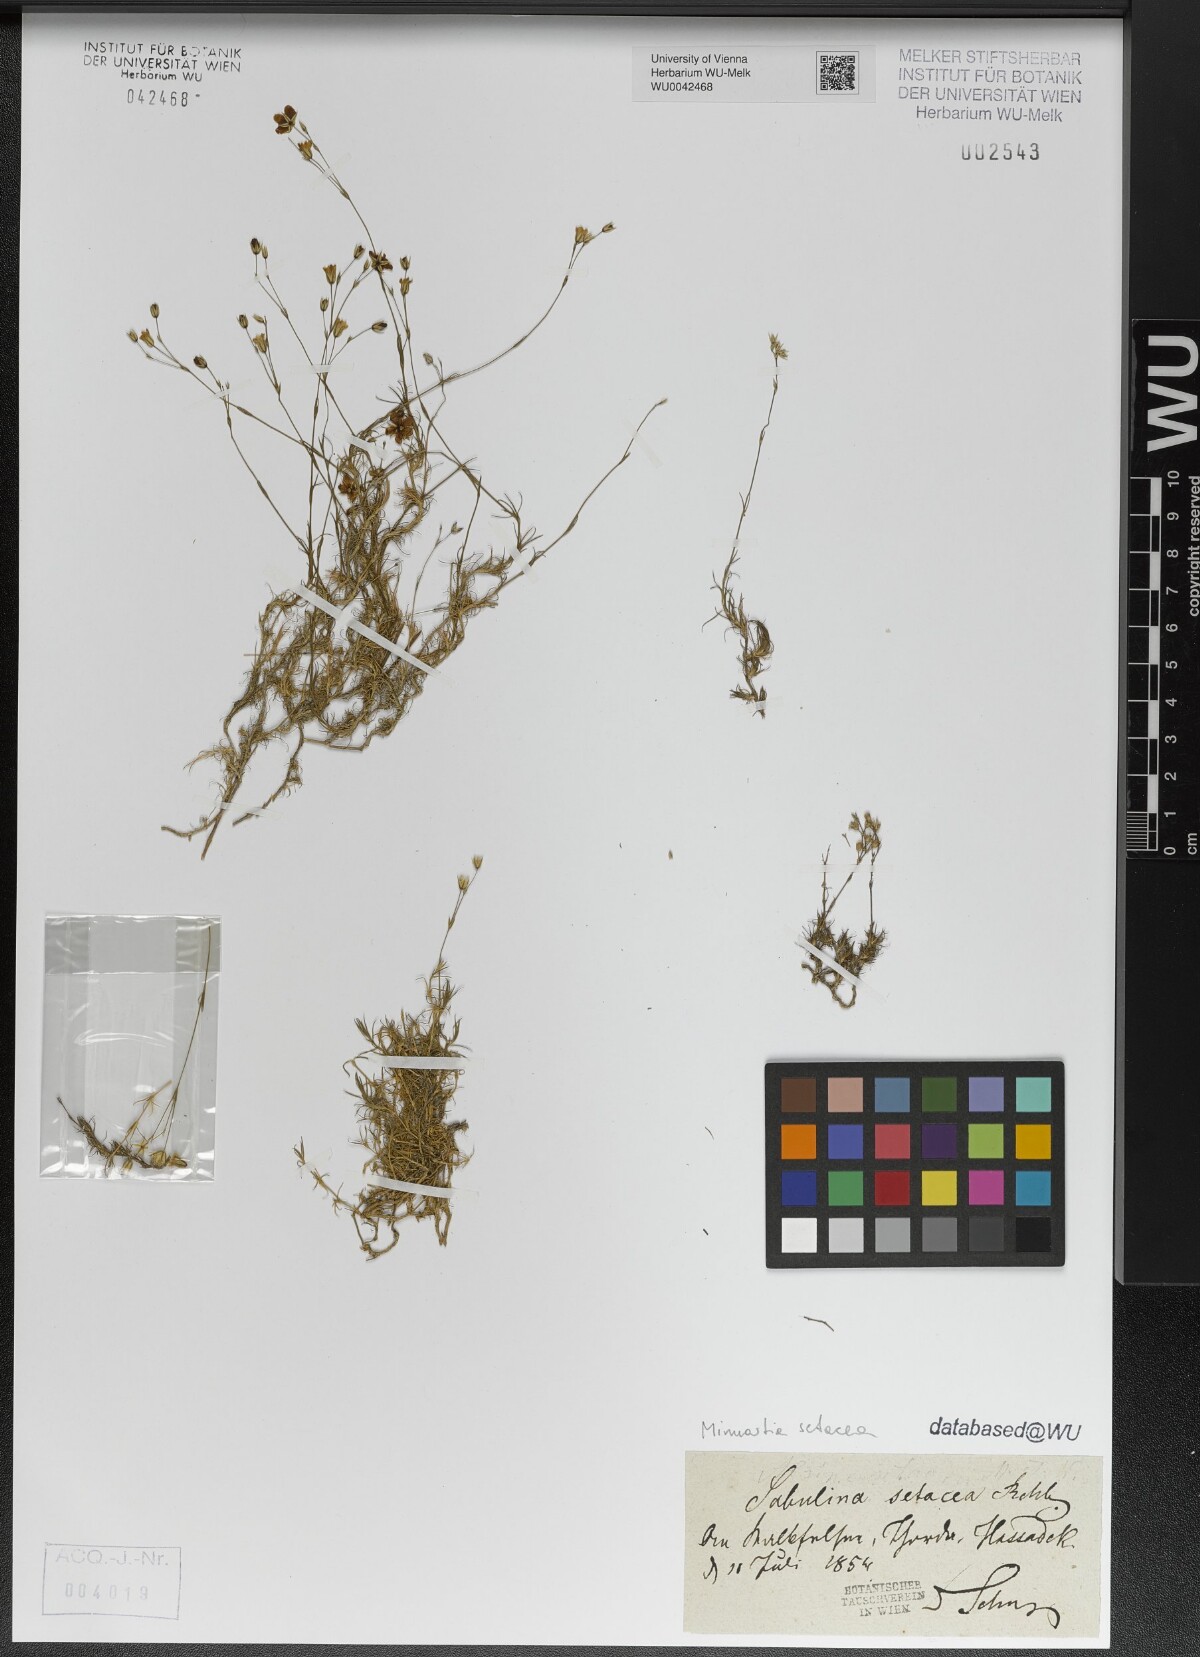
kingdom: Plantae
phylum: Tracheophyta
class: Magnoliopsida
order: Caryophyllales
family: Caryophyllaceae
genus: Minuartia
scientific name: Minuartia setacea
